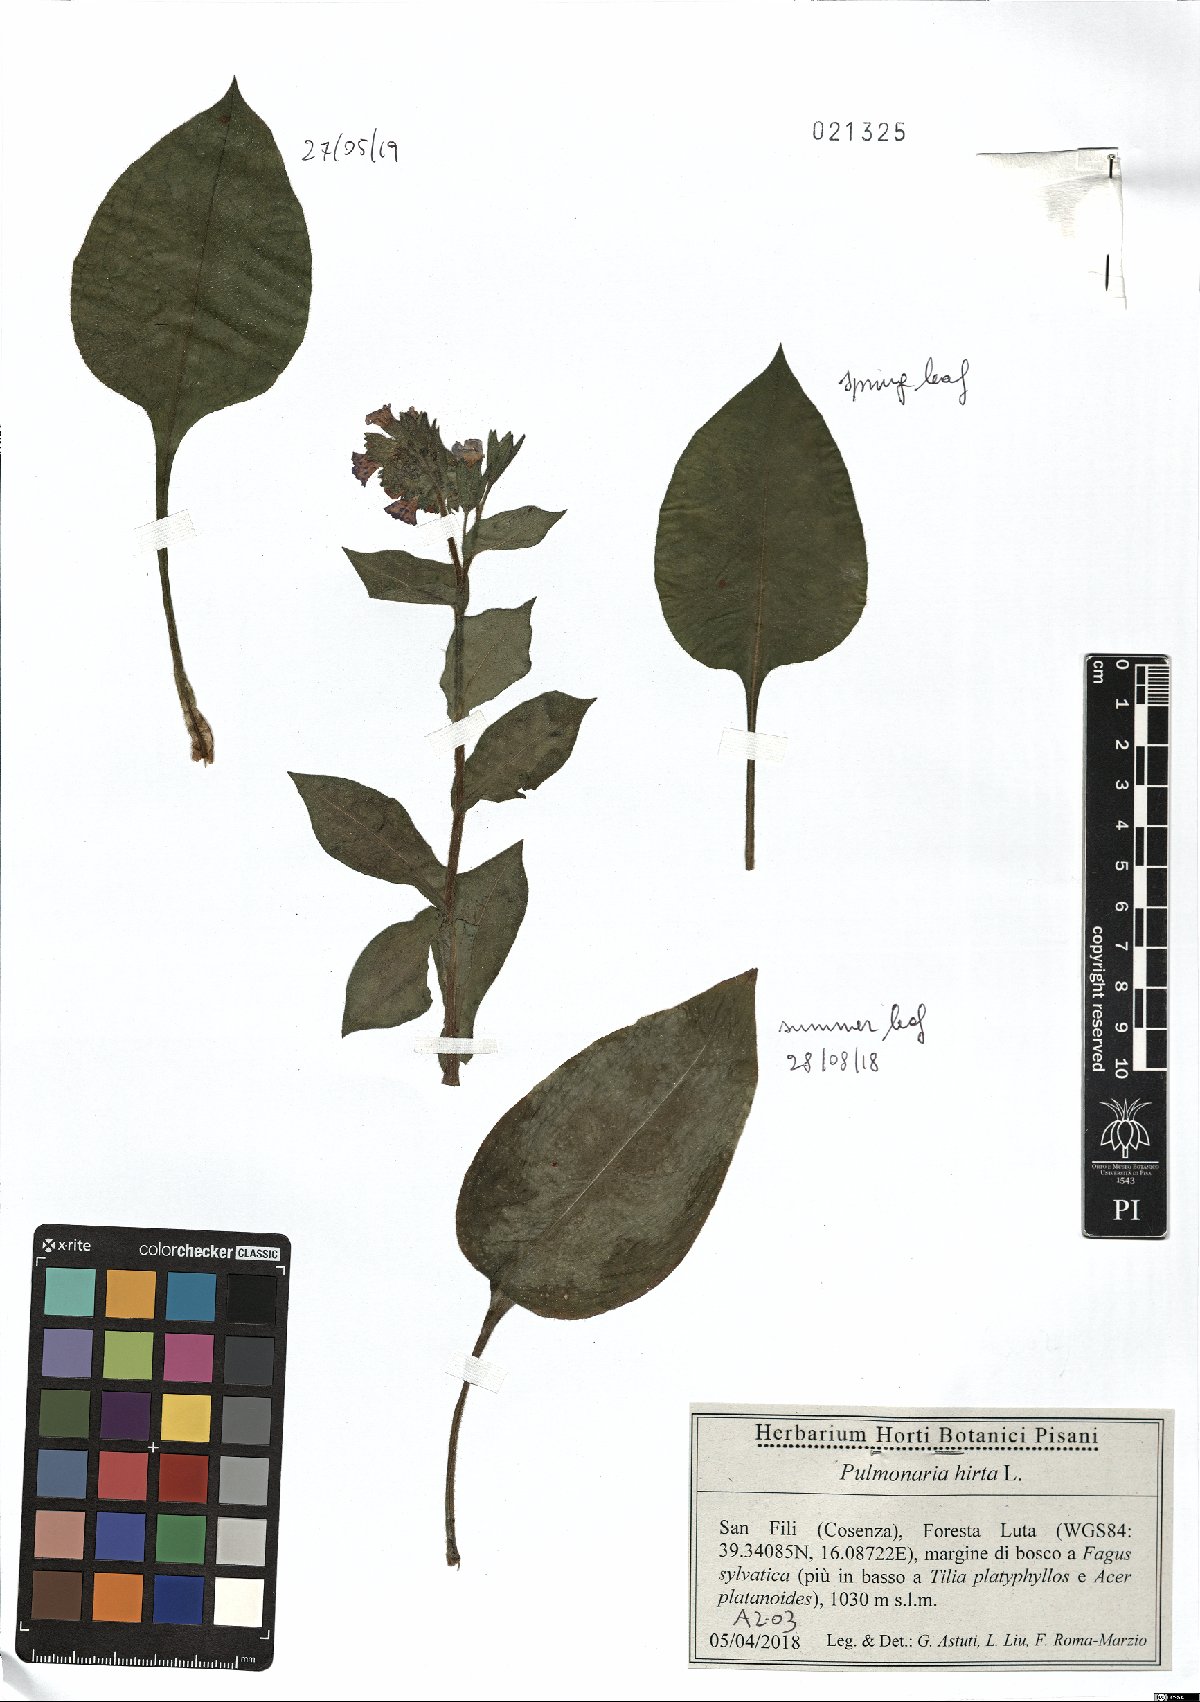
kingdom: Plantae
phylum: Tracheophyta
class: Magnoliopsida
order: Boraginales
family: Boraginaceae
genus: Pulmonaria
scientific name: Pulmonaria hirta
